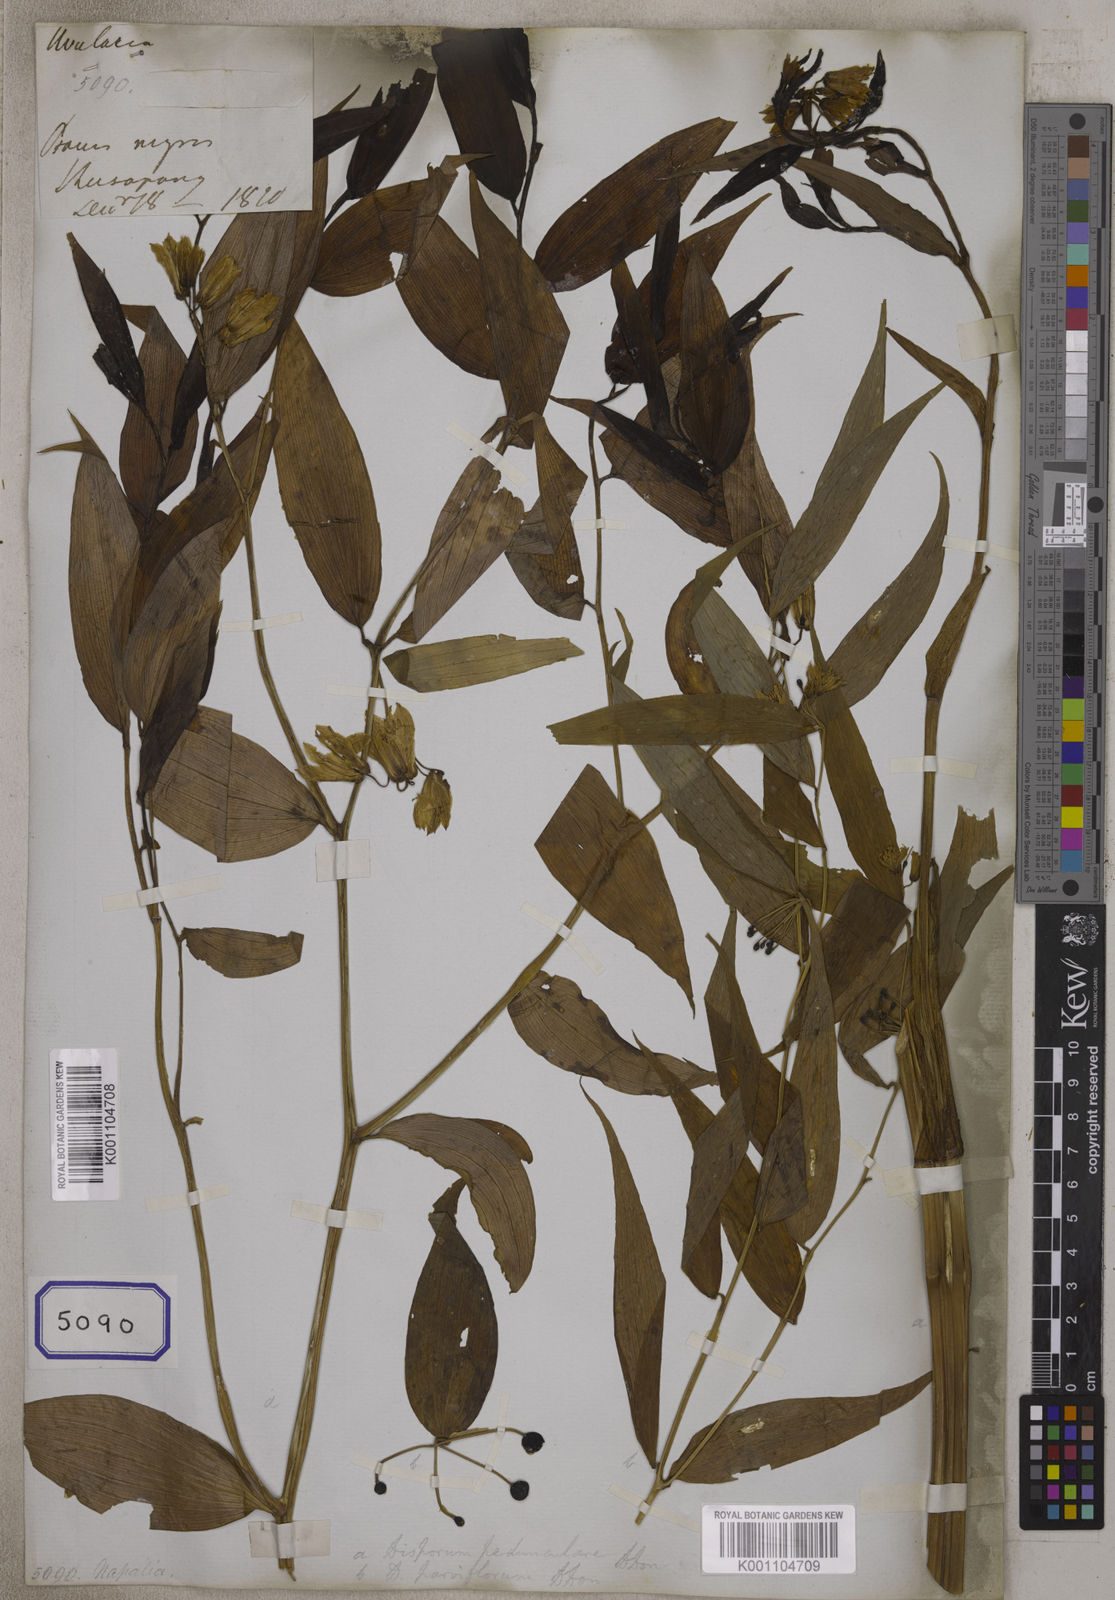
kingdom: Plantae
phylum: Tracheophyta
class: Liliopsida
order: Liliales
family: Colchicaceae
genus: Disporum
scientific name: Disporum cantoniense
